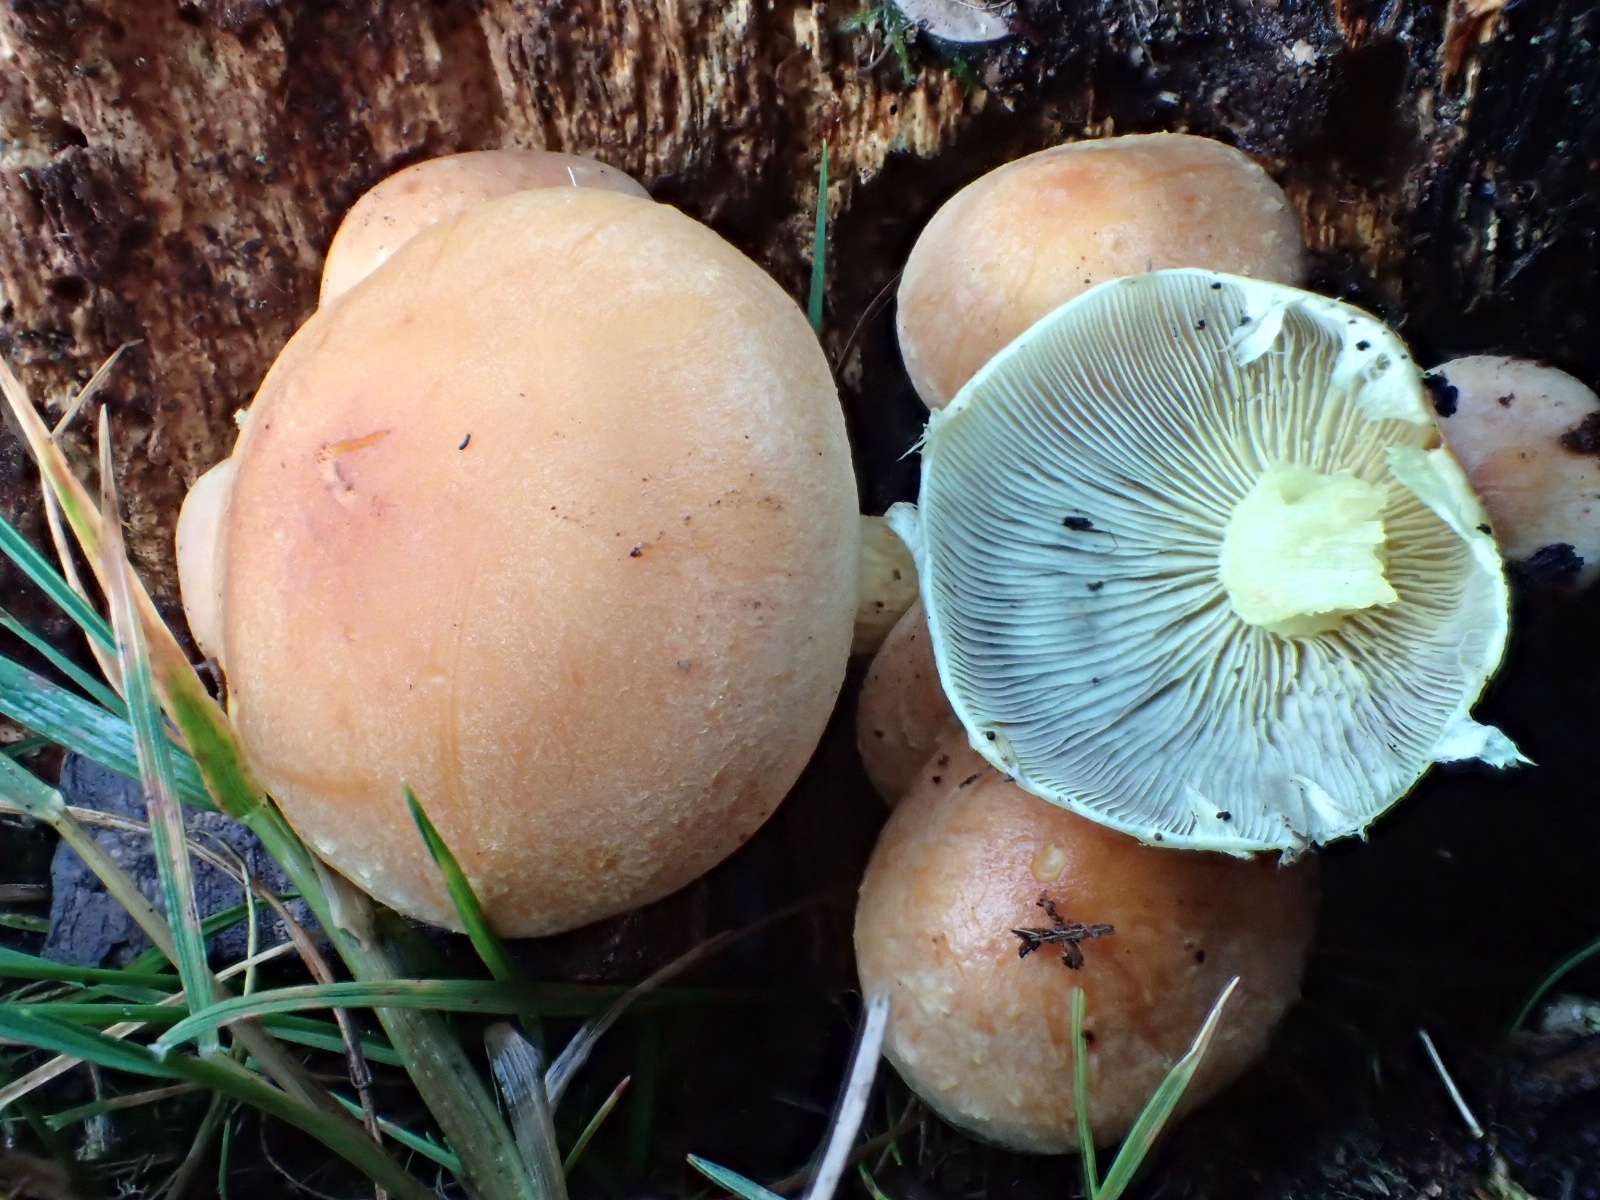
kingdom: Fungi
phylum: Basidiomycota
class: Agaricomycetes
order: Agaricales
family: Strophariaceae
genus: Hypholoma
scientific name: Hypholoma fasciculare
